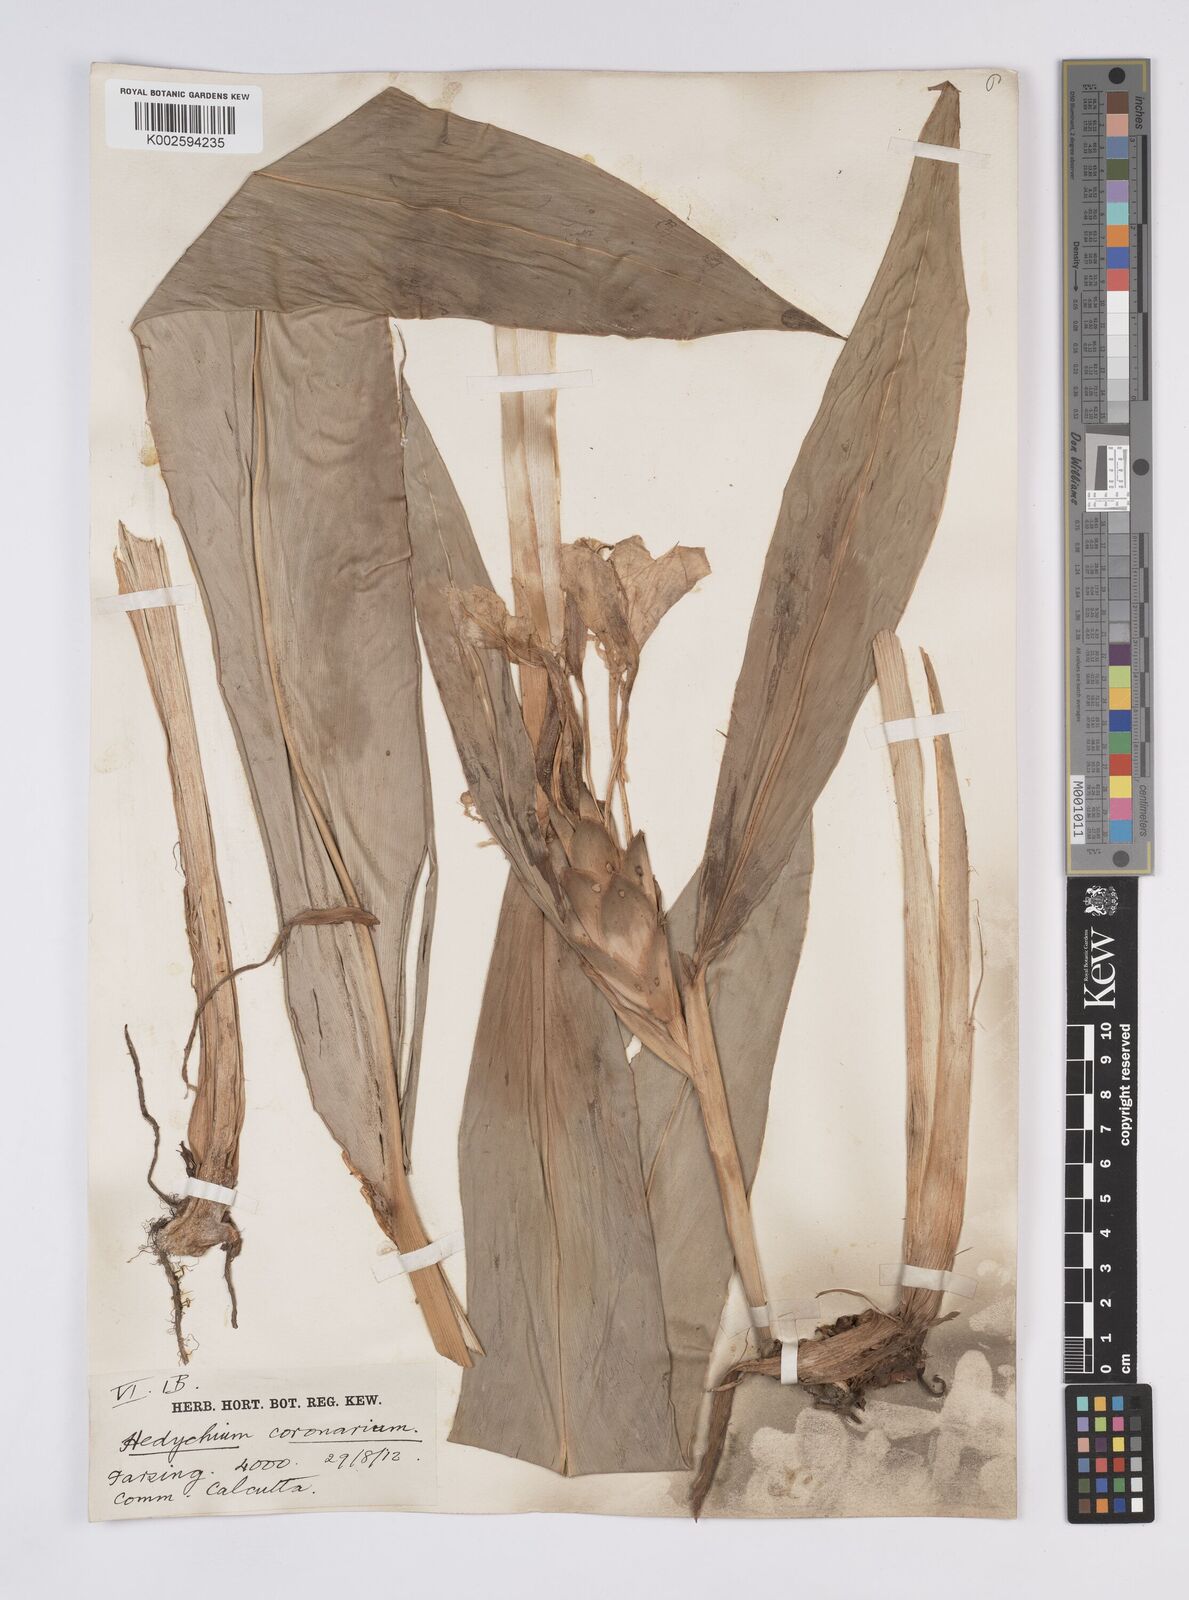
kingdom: Plantae
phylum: Tracheophyta
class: Liliopsida
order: Zingiberales
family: Zingiberaceae
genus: Hedychium
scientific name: Hedychium
